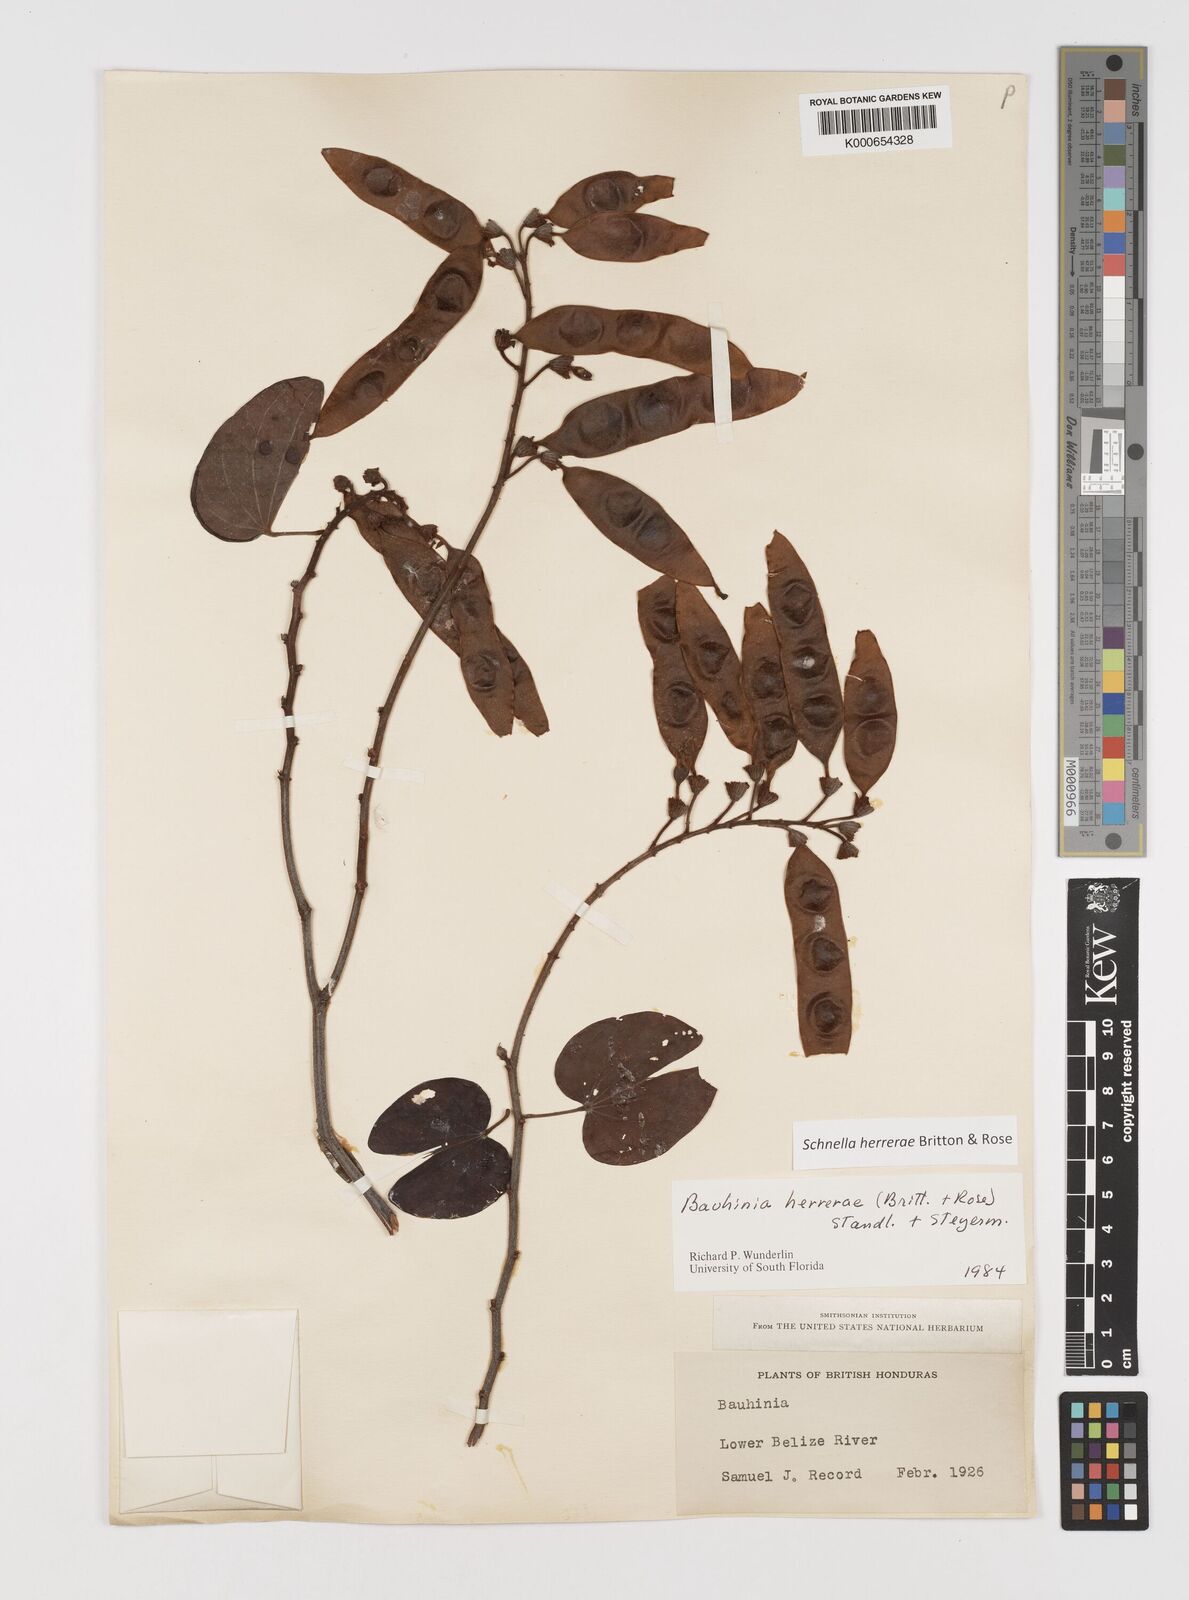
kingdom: Plantae
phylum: Tracheophyta
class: Magnoliopsida
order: Fabales
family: Fabaceae
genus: Schnella
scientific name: Schnella herrerae
